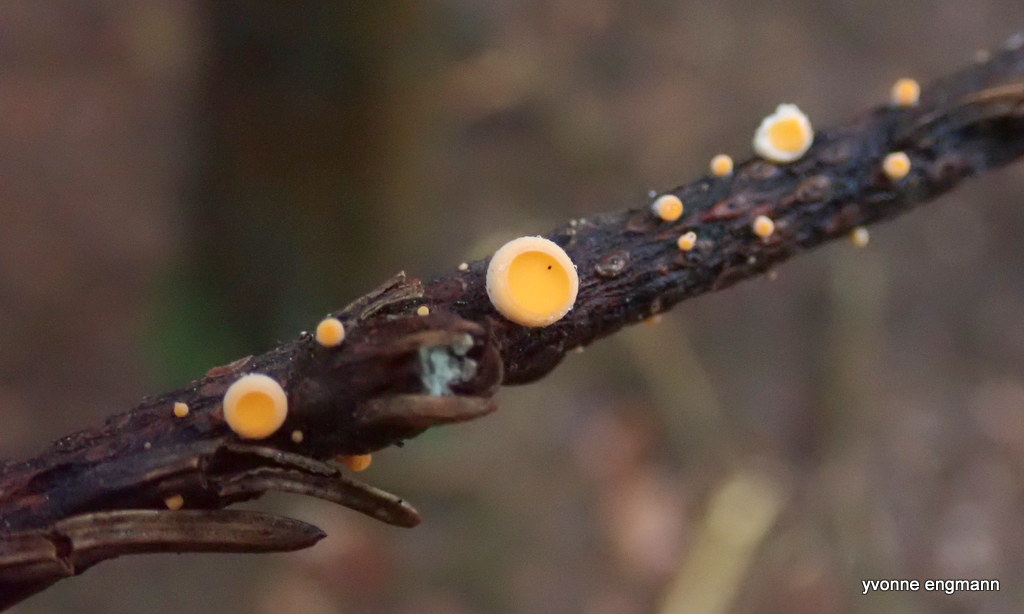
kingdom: Fungi
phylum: Ascomycota
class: Pezizomycetes
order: Pezizales
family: Sarcoscyphaceae
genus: Pithya
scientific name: Pithya vulgaris
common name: stor dukatbæger
